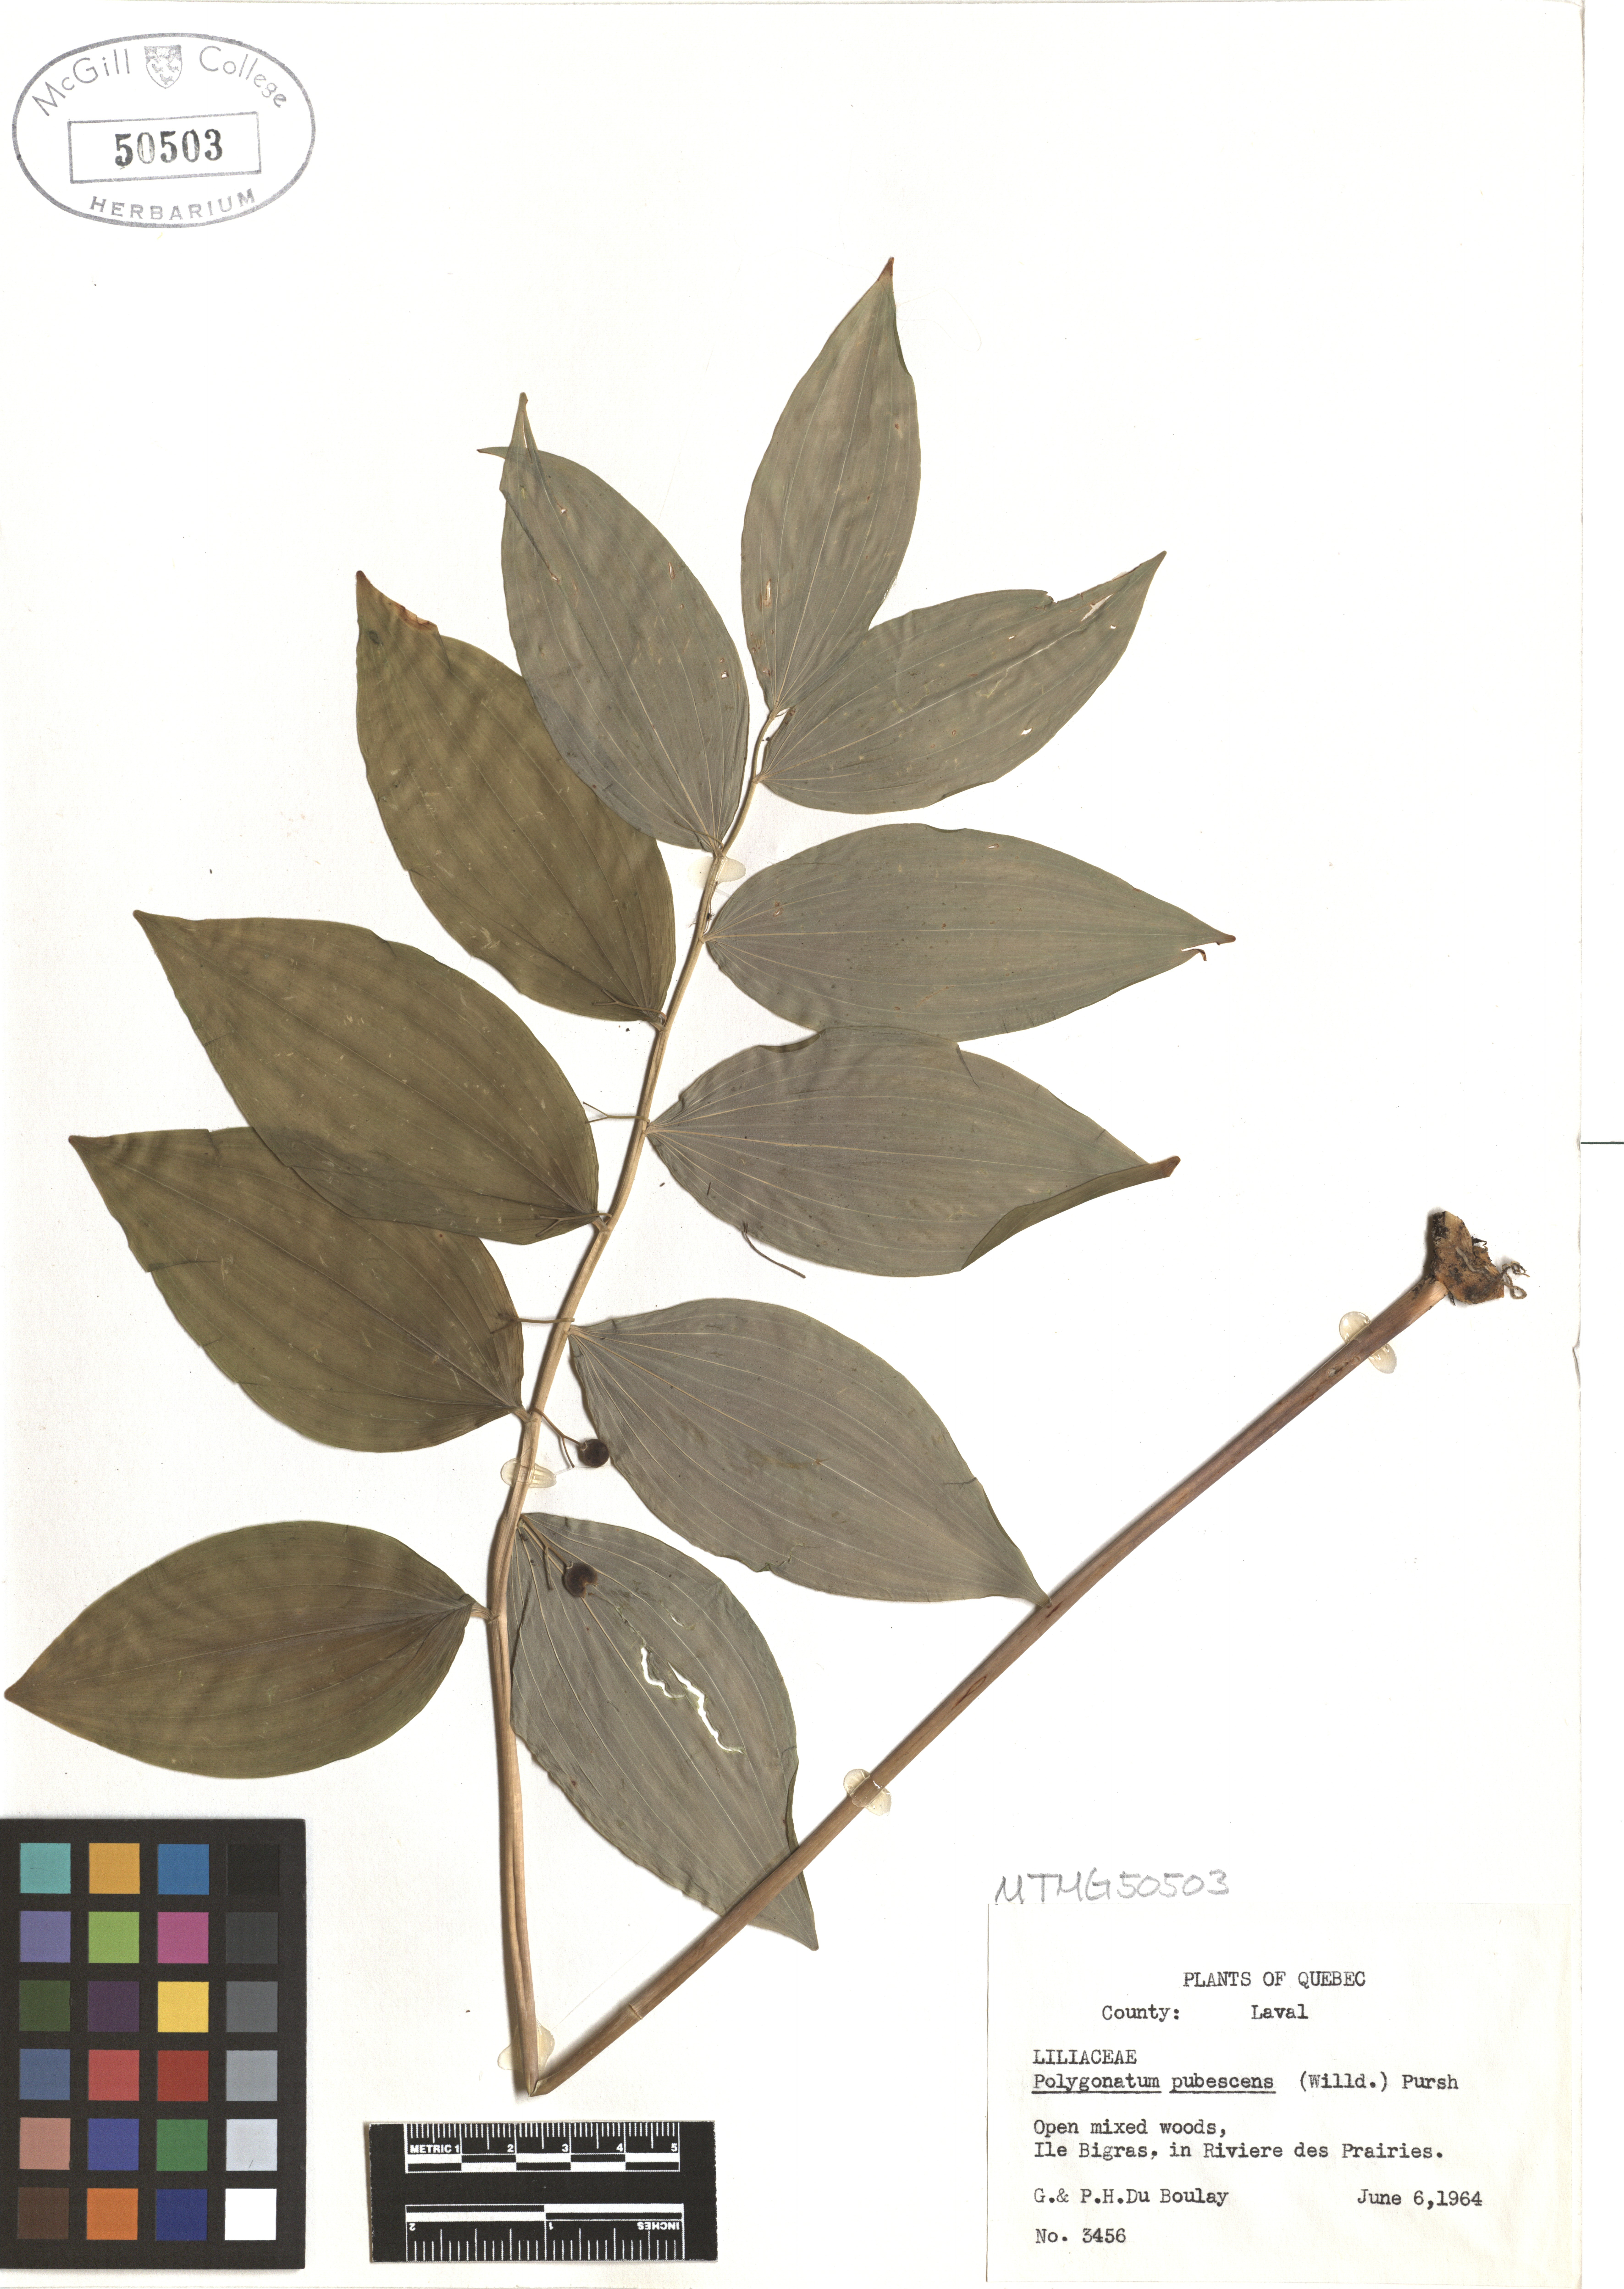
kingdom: Plantae
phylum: Tracheophyta
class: Liliopsida
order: Asparagales
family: Asparagaceae
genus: Polygonatum
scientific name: Polygonatum pubescens
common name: Downy solomon's seal
